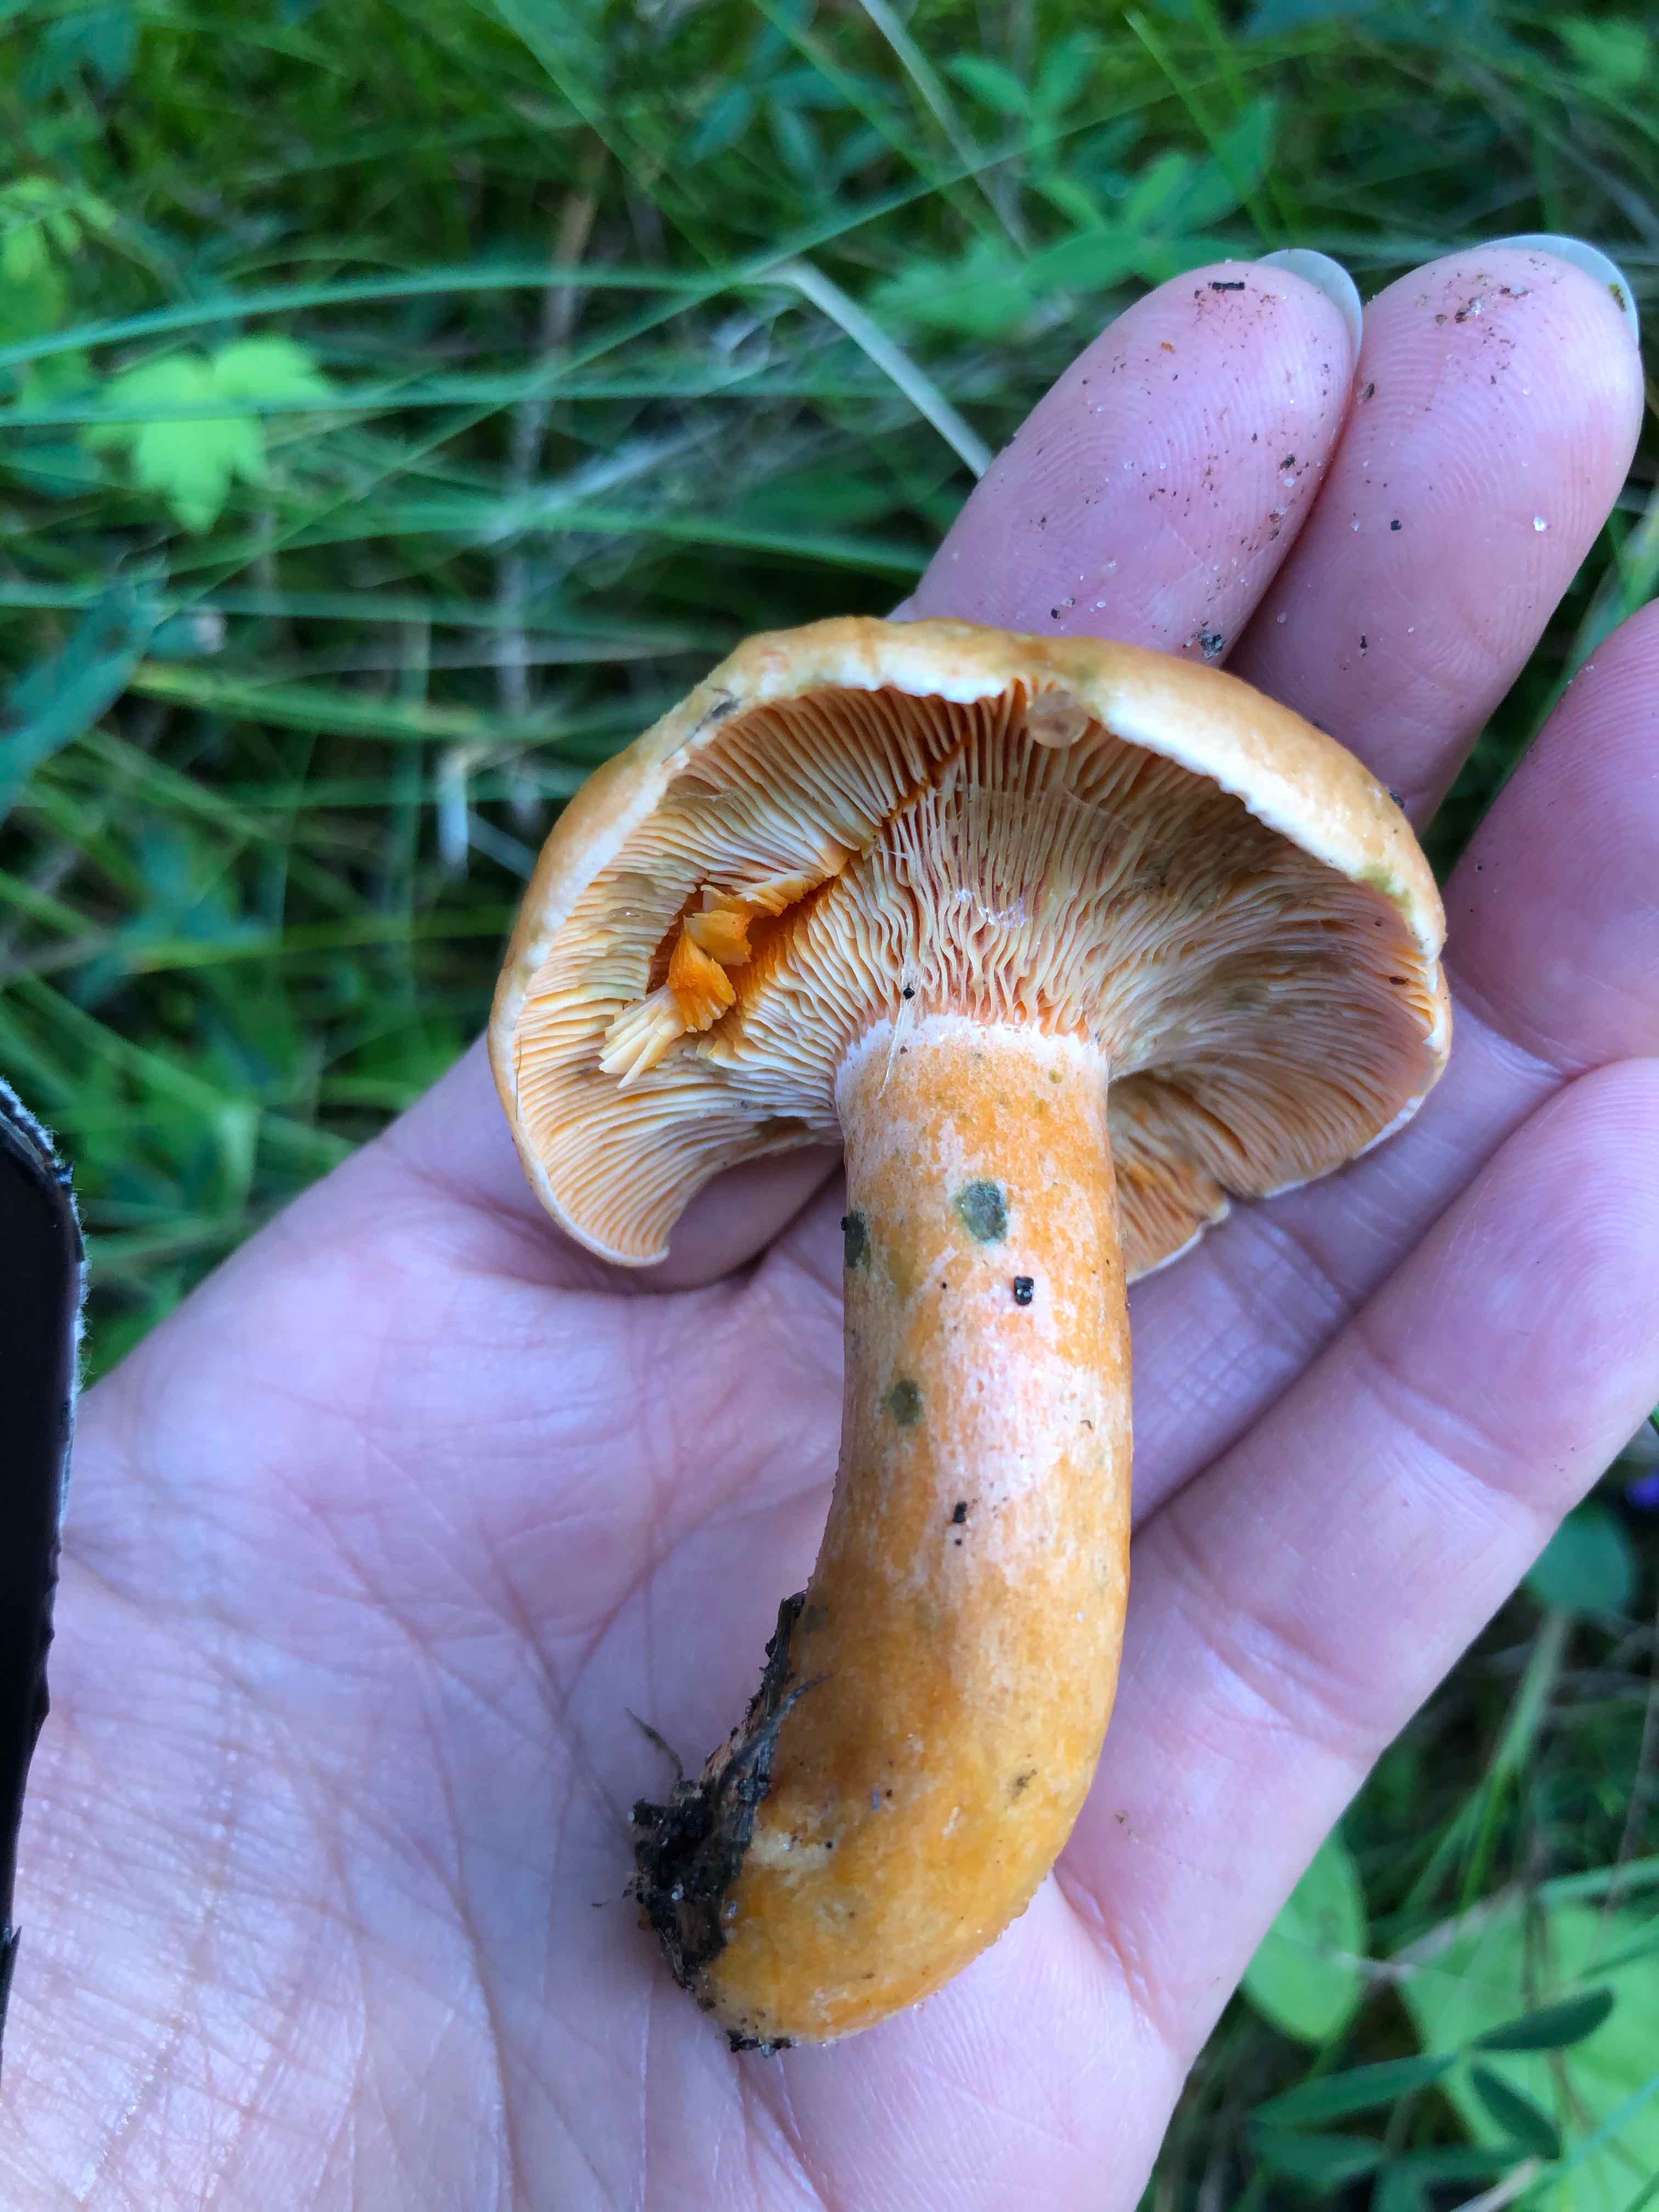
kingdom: Fungi
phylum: Basidiomycota
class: Agaricomycetes
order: Russulales
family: Russulaceae
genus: Lactarius
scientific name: Lactarius deterrimus
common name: gran-mælkehat
